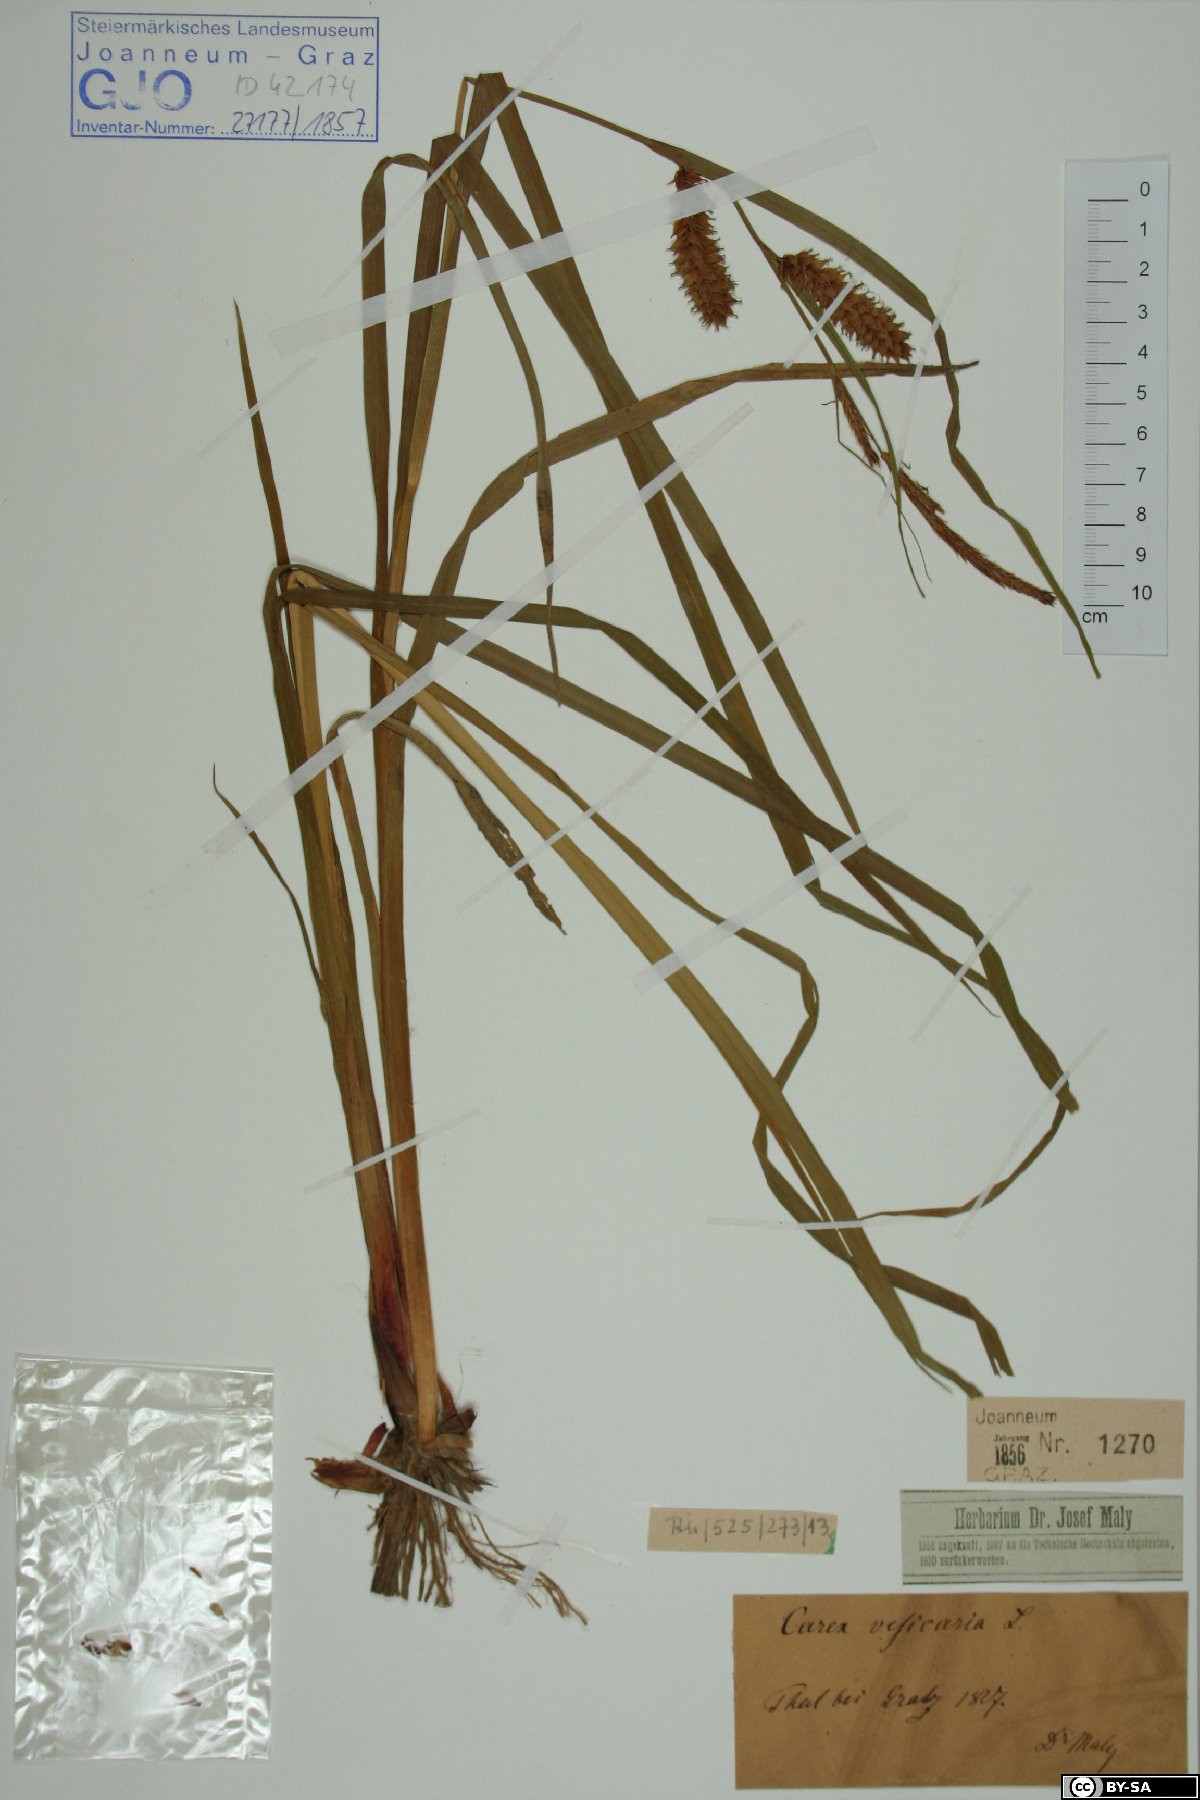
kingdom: Plantae
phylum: Tracheophyta
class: Liliopsida
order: Poales
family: Cyperaceae
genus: Carex
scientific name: Carex vesicaria
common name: Bladder-sedge
